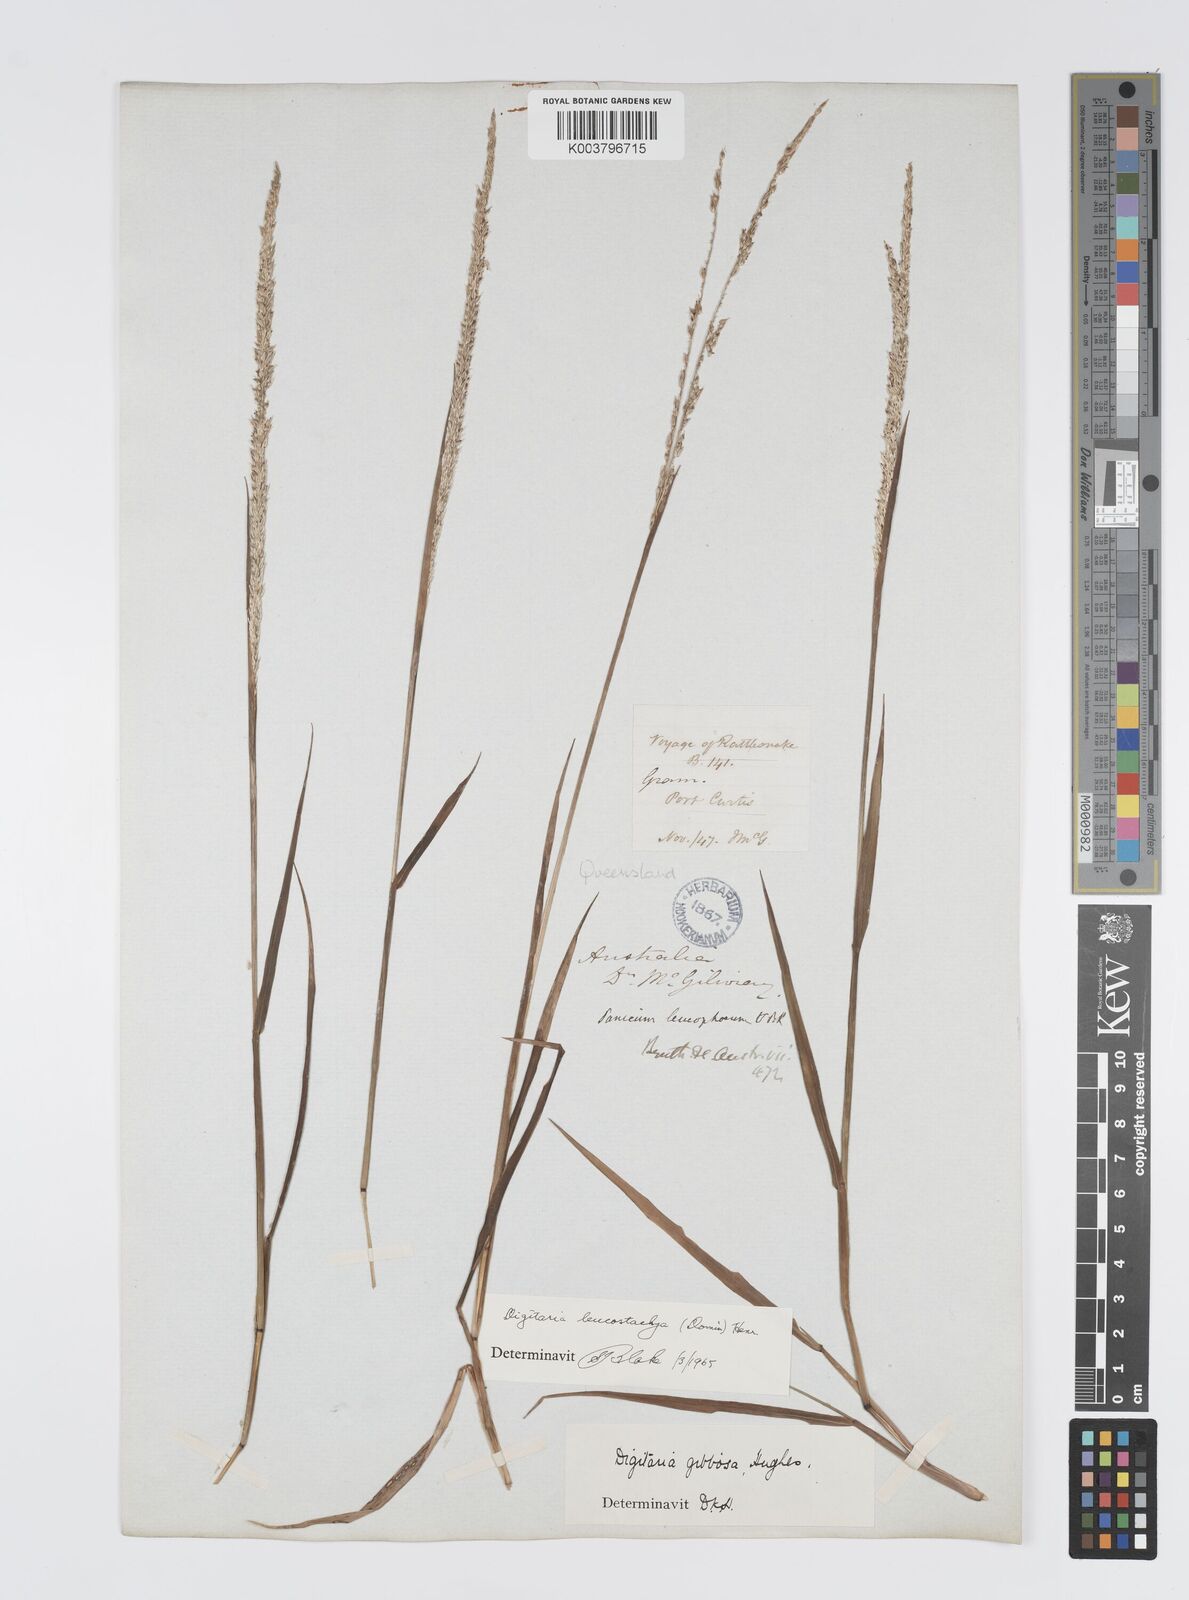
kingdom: Plantae
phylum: Tracheophyta
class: Liliopsida
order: Poales
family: Poaceae
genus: Digitaria
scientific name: Digitaria leucostachya
